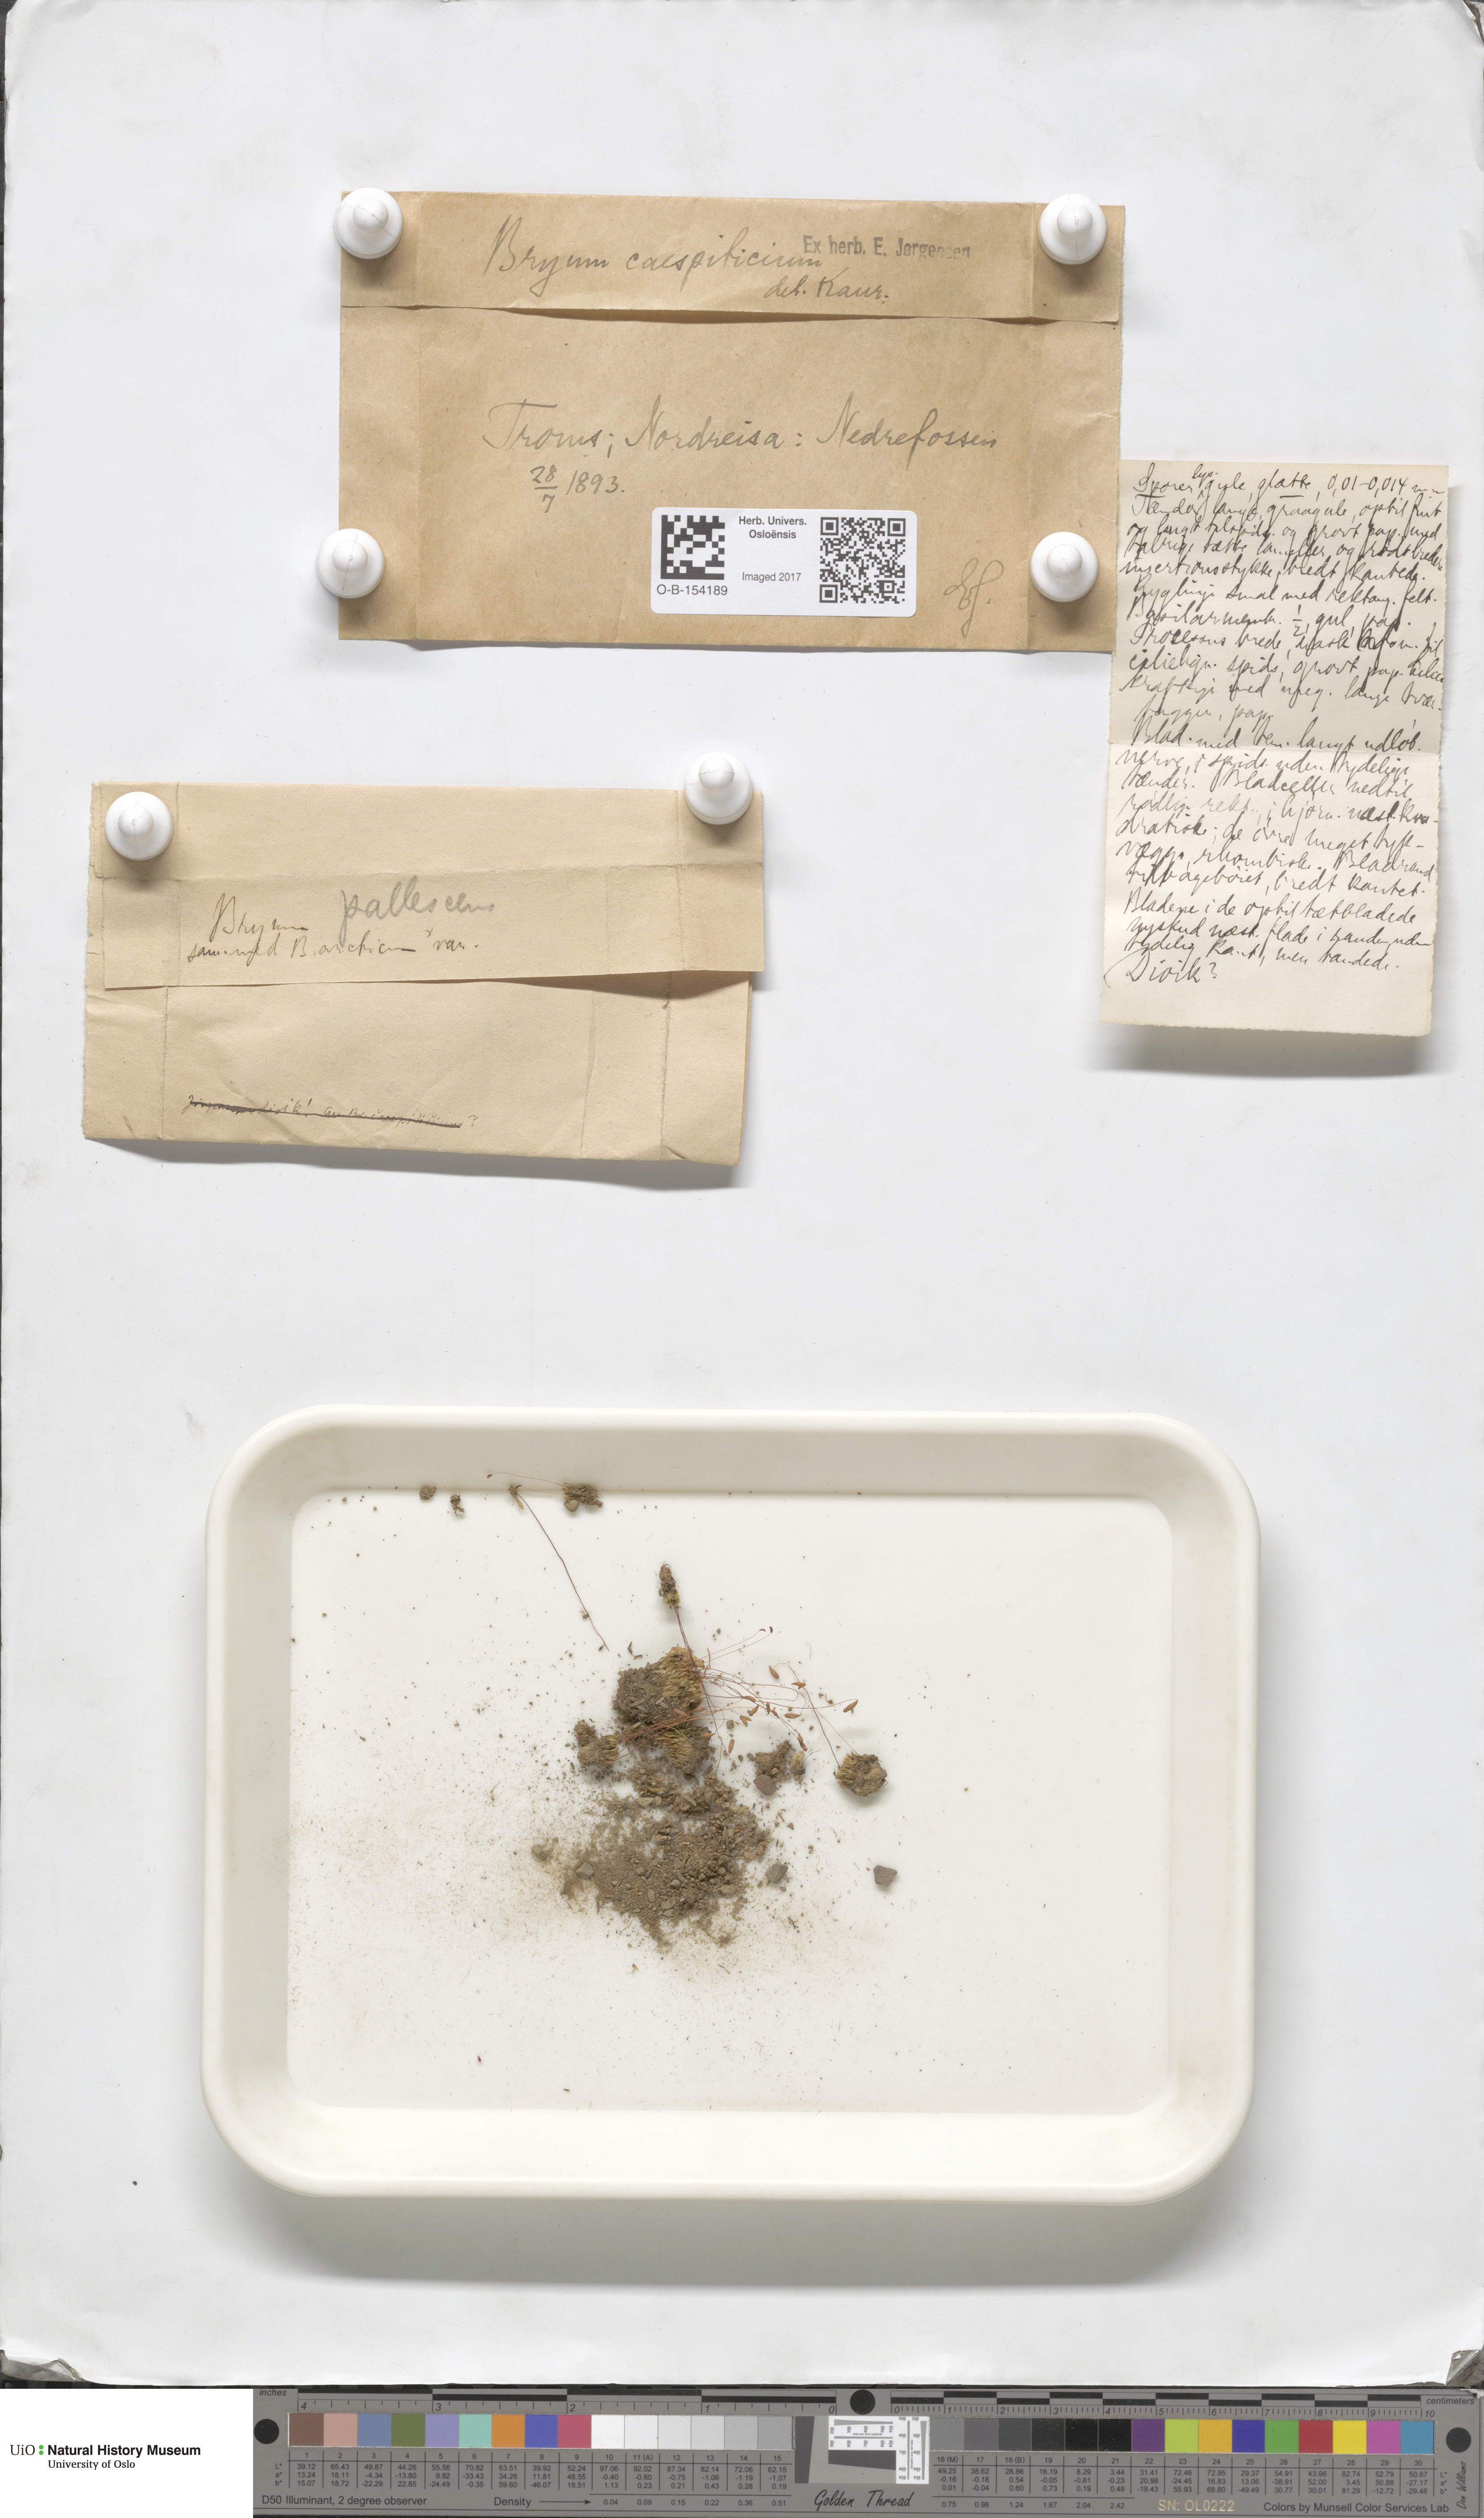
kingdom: Plantae
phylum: Bryophyta
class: Bryopsida
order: Bryales
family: Bryaceae
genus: Gemmabryum
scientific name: Gemmabryum caespiticium
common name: Handbell moss
